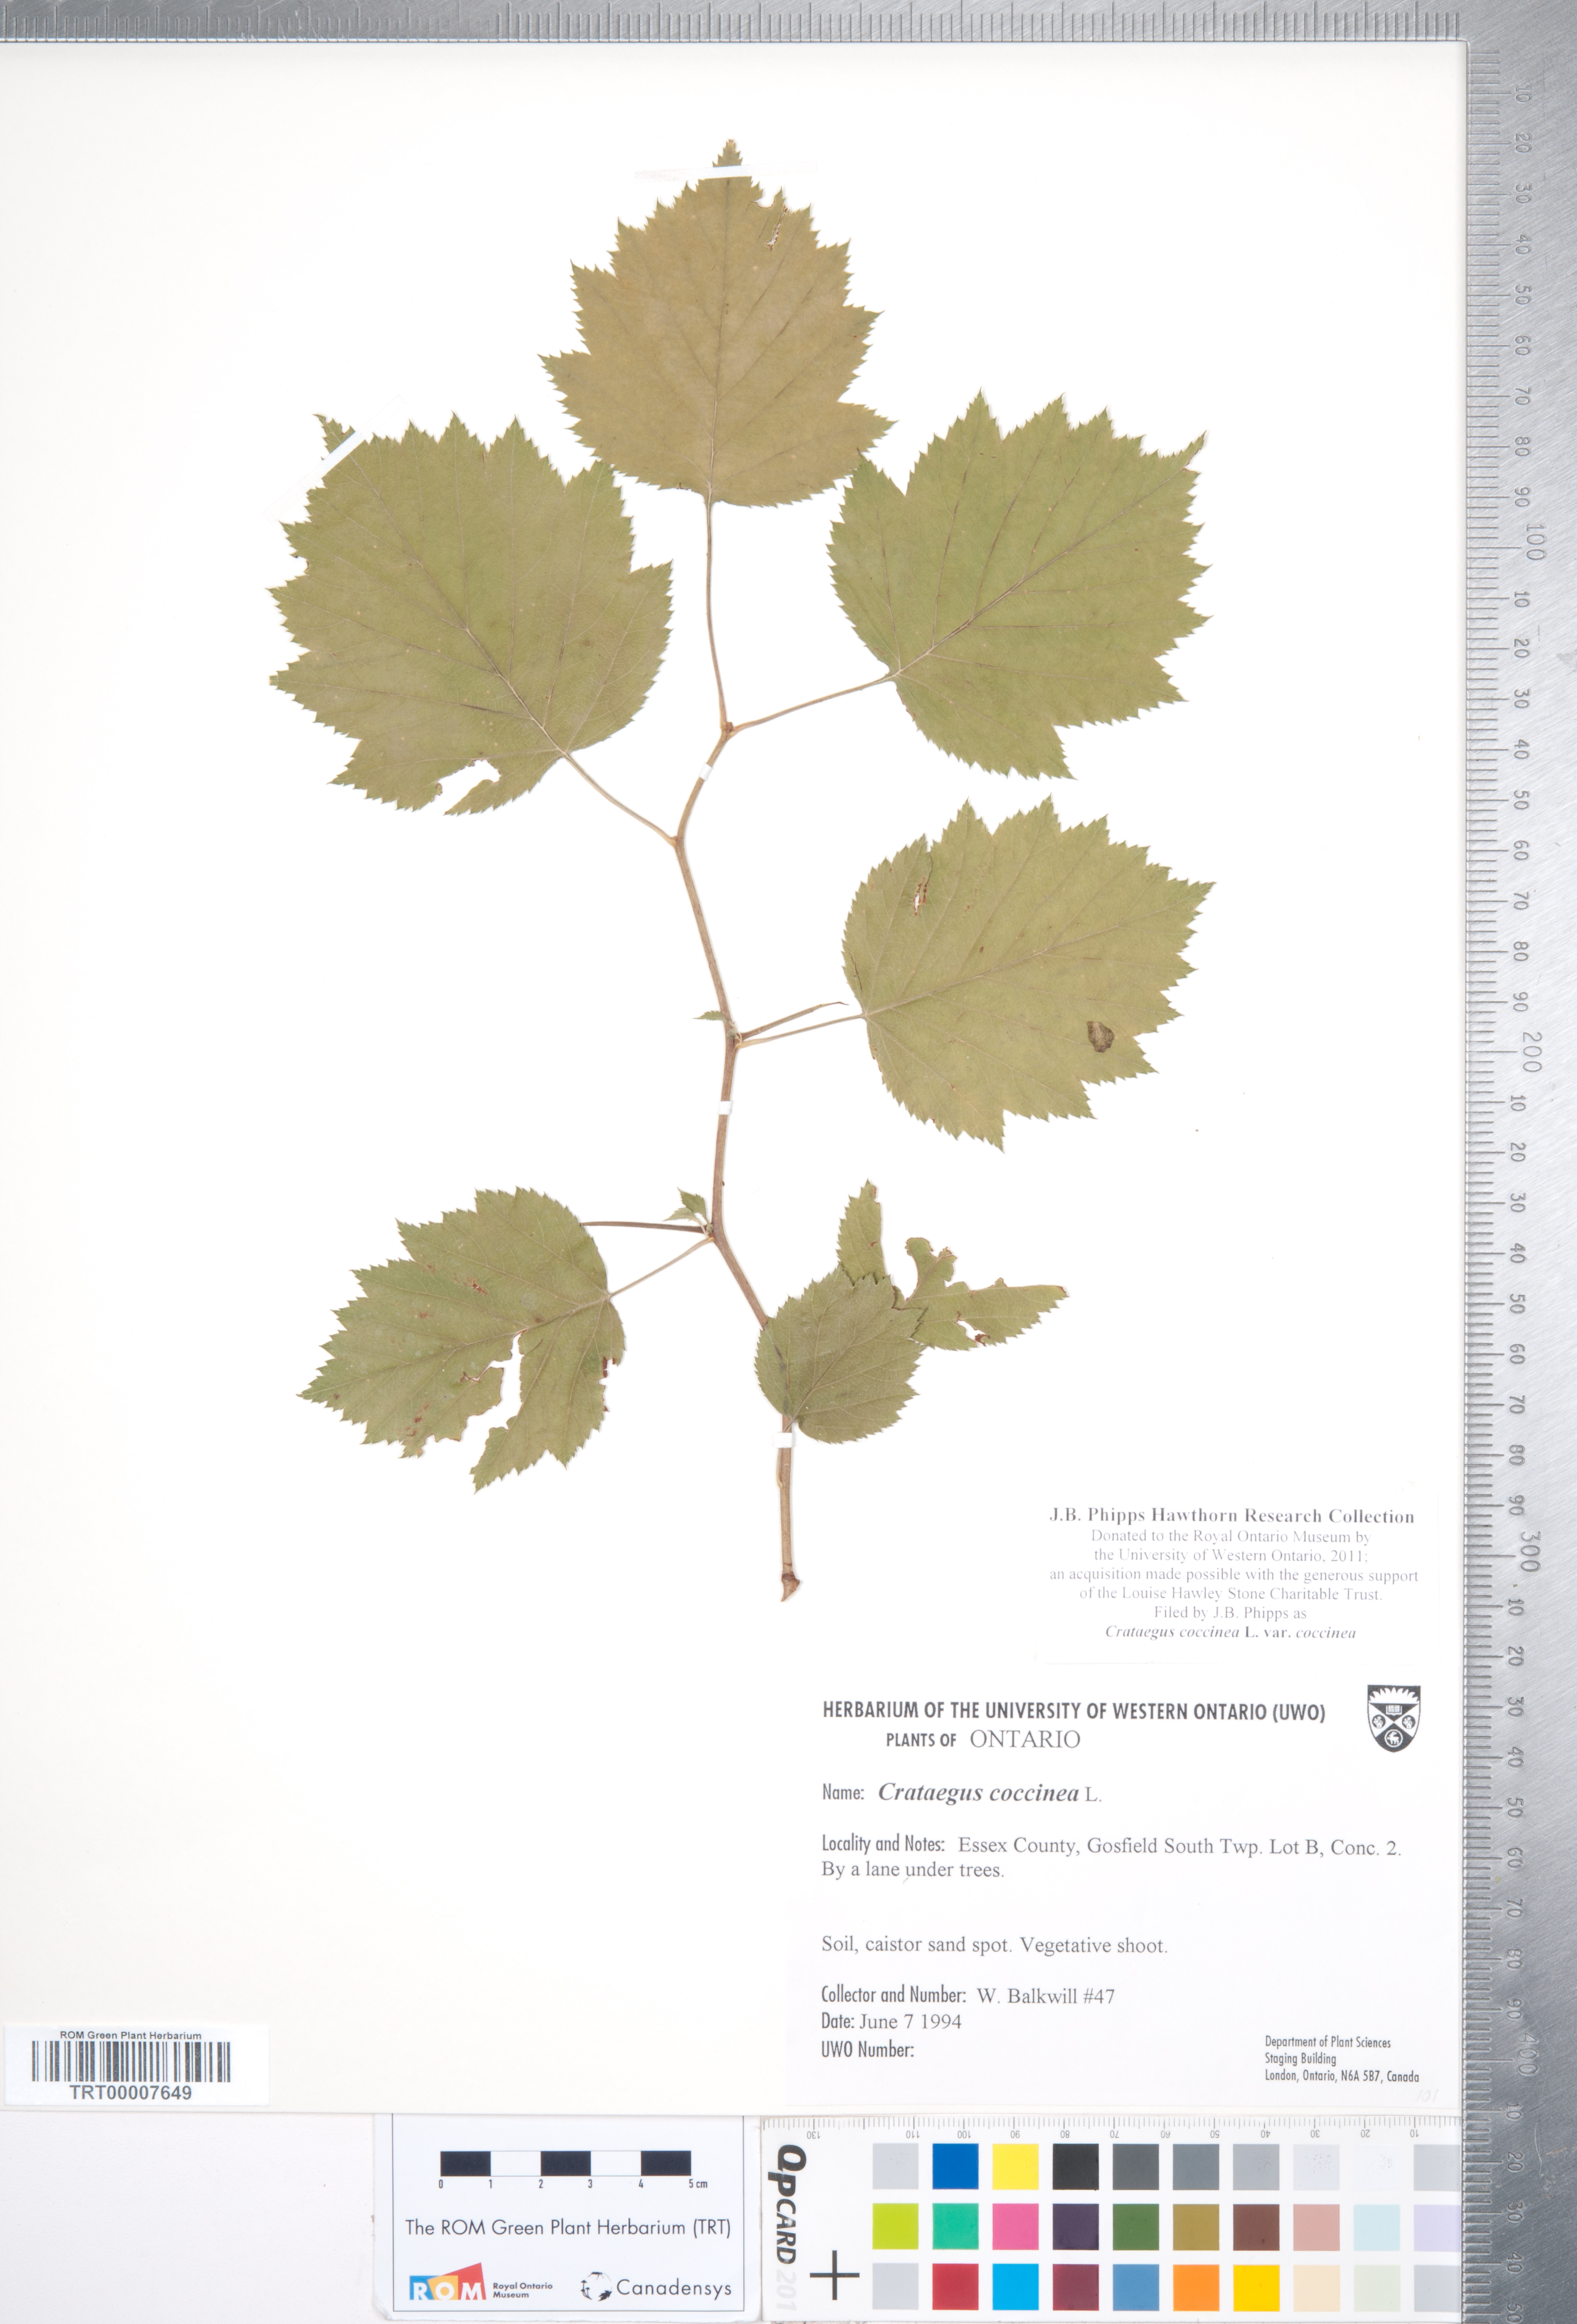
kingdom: Plantae
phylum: Tracheophyta
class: Magnoliopsida
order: Rosales
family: Rosaceae
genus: Crataegus
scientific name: Crataegus coccinea
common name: Scarlet hawthorn
